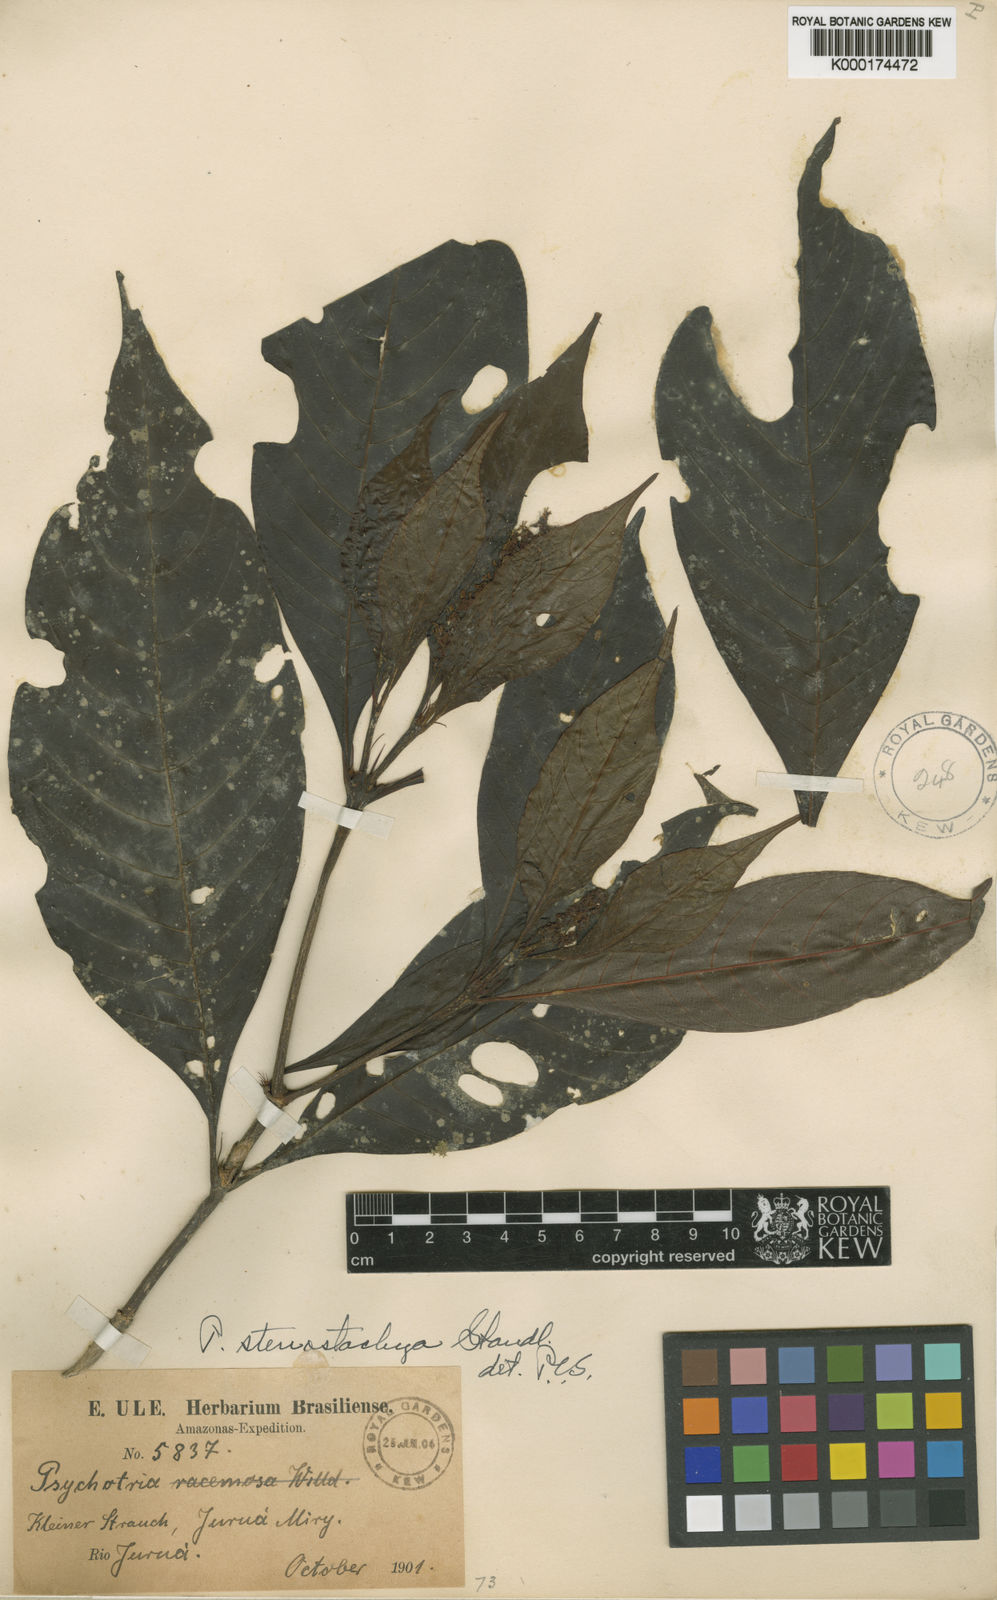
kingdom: Plantae
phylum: Tracheophyta
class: Magnoliopsida
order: Gentianales
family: Rubiaceae
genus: Palicourea
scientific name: Palicourea stenostachya
